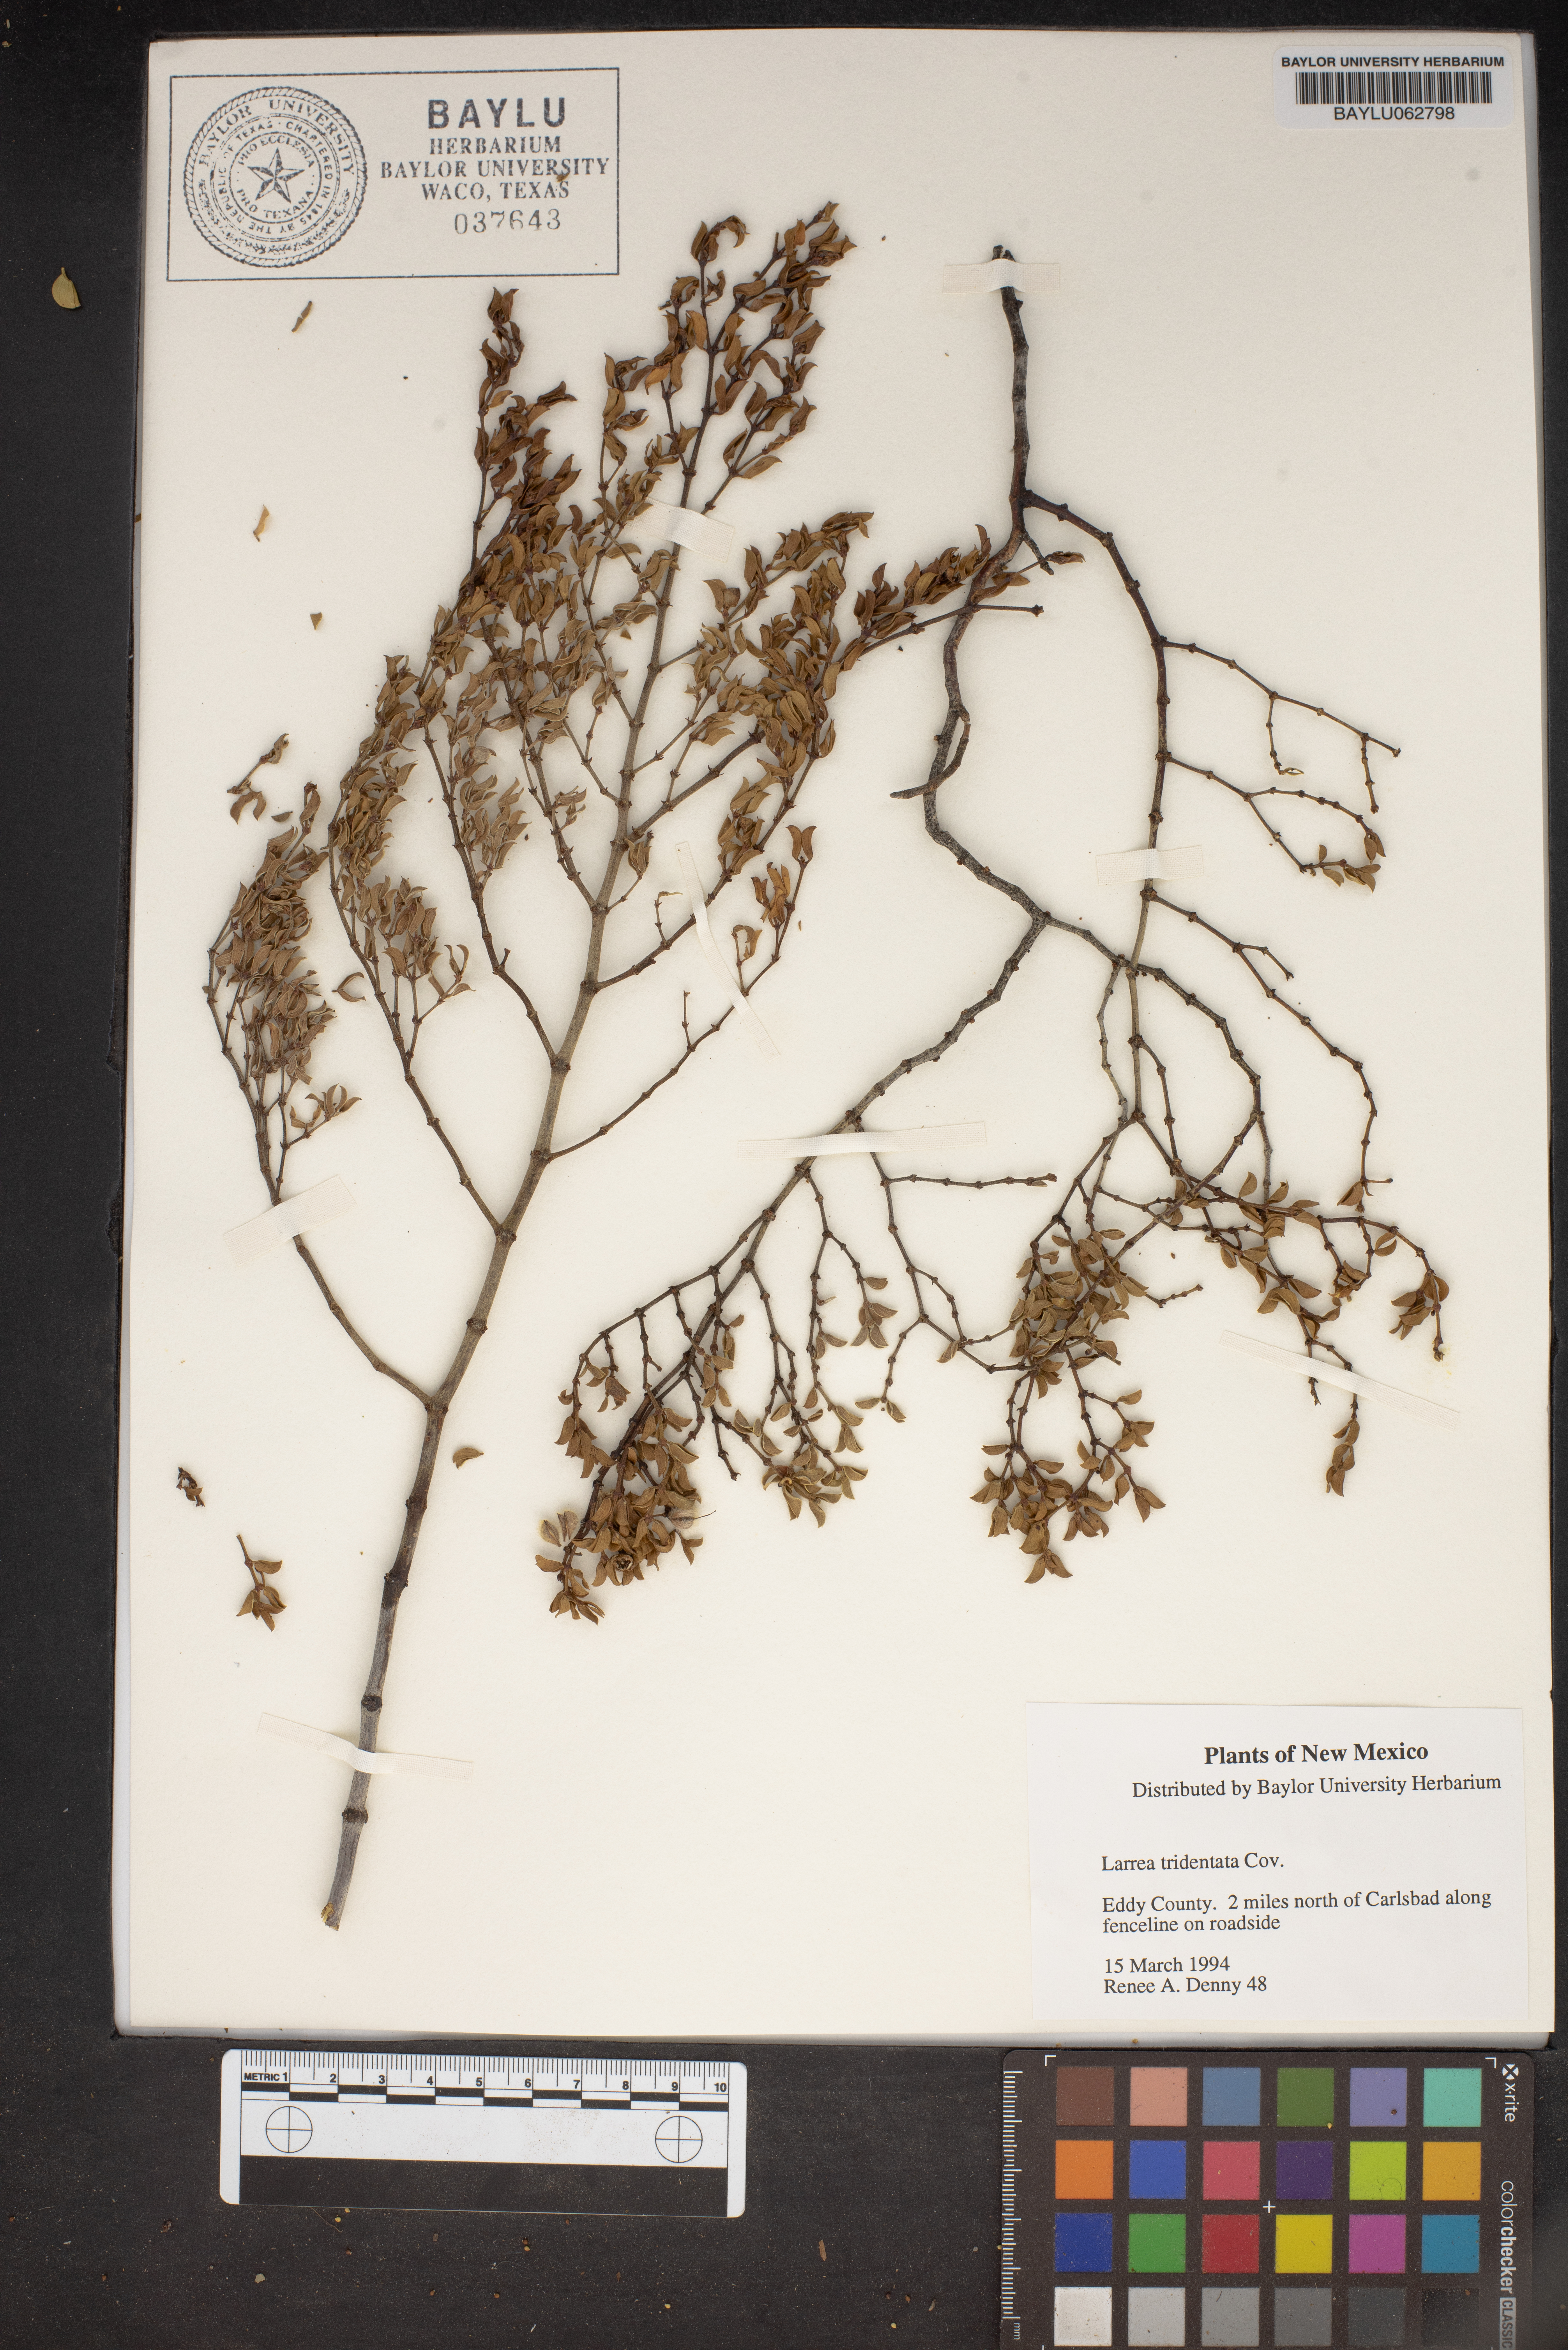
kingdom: Plantae
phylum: Tracheophyta
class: Magnoliopsida
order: Zygophyllales
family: Zygophyllaceae
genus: Larrea
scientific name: Larrea tridentata
